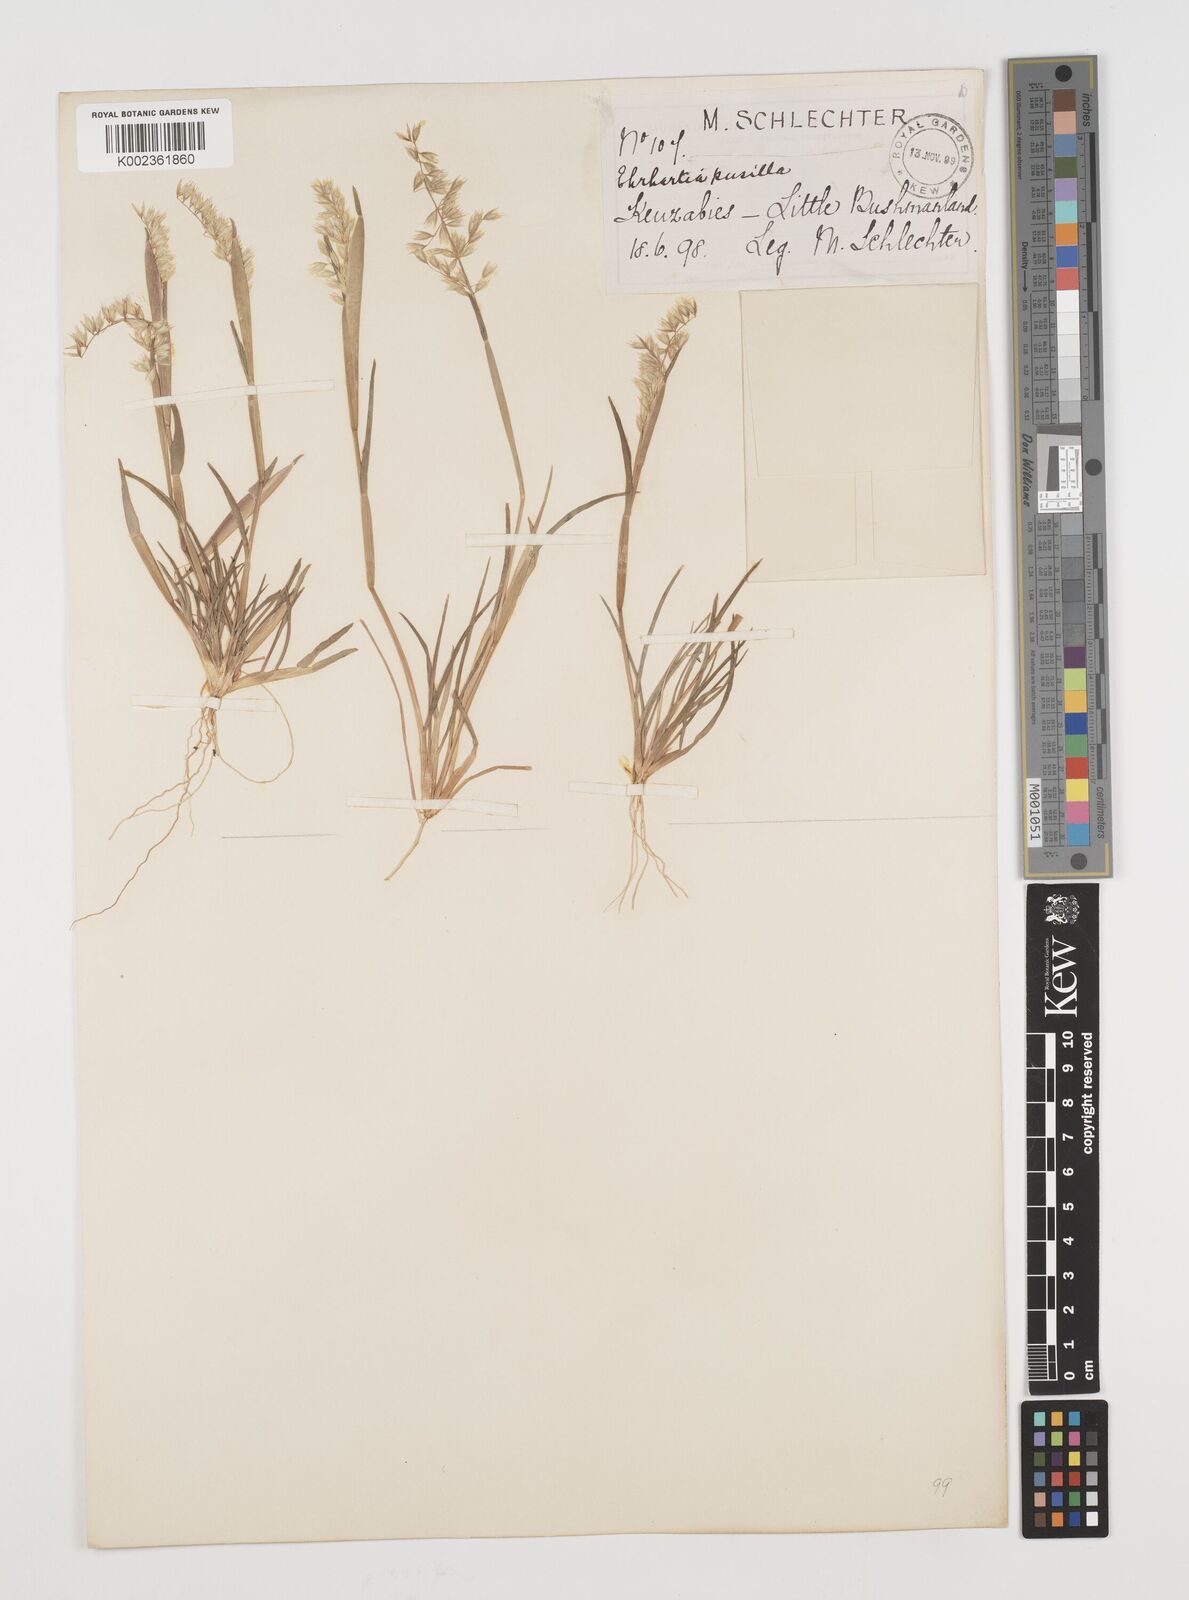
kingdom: Plantae
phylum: Tracheophyta
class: Liliopsida
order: Poales
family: Poaceae
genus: Ehrharta
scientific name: Ehrharta pusilla
